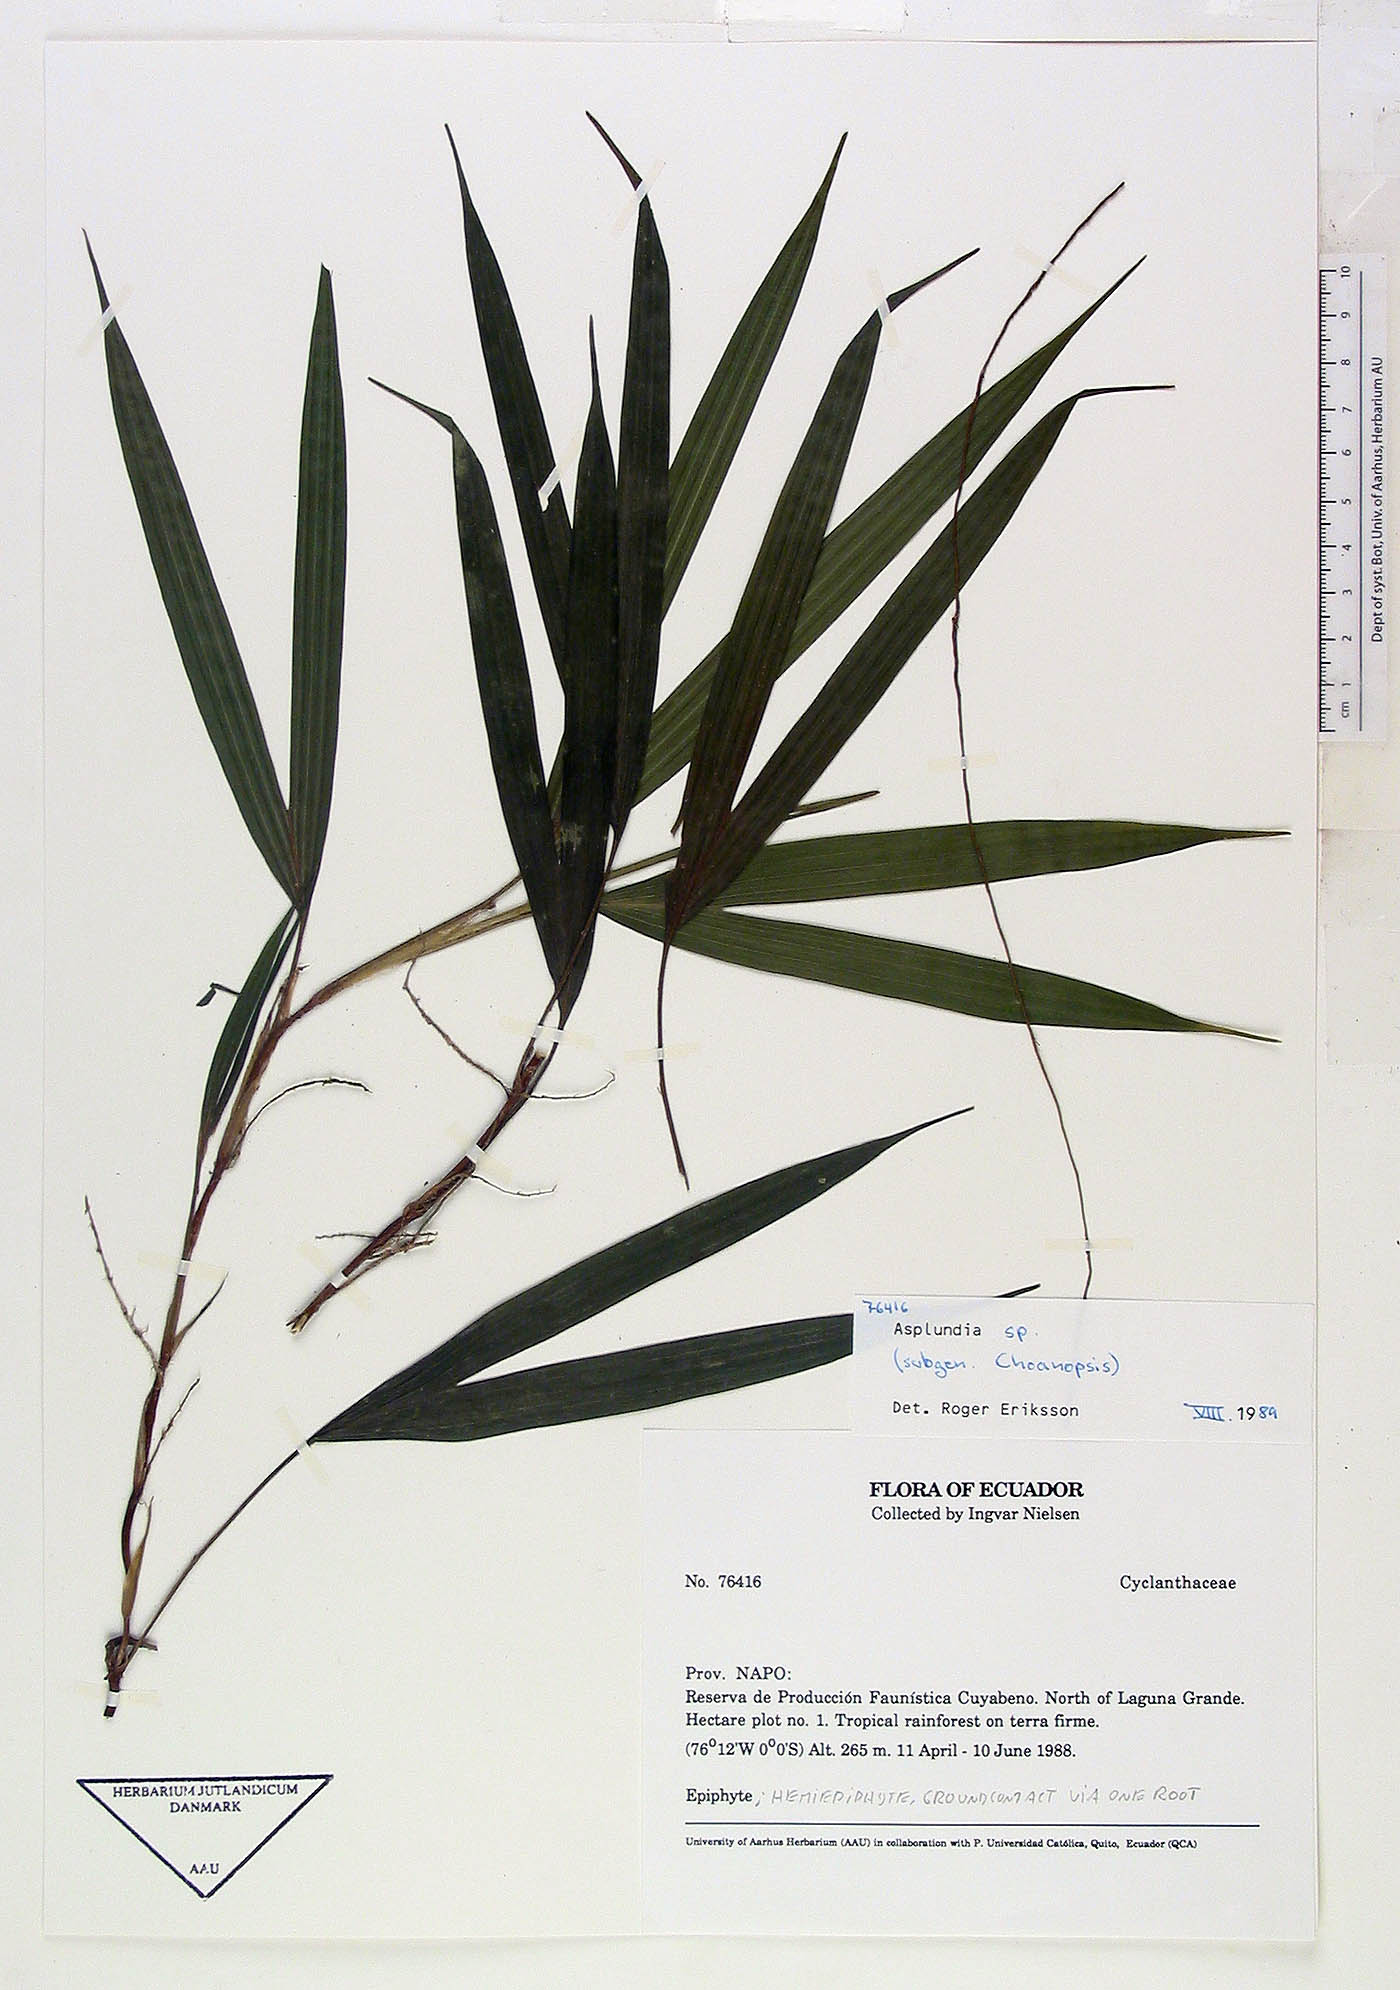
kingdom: Plantae
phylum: Tracheophyta
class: Liliopsida
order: Pandanales
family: Cyclanthaceae
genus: Asplundia
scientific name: Asplundia
